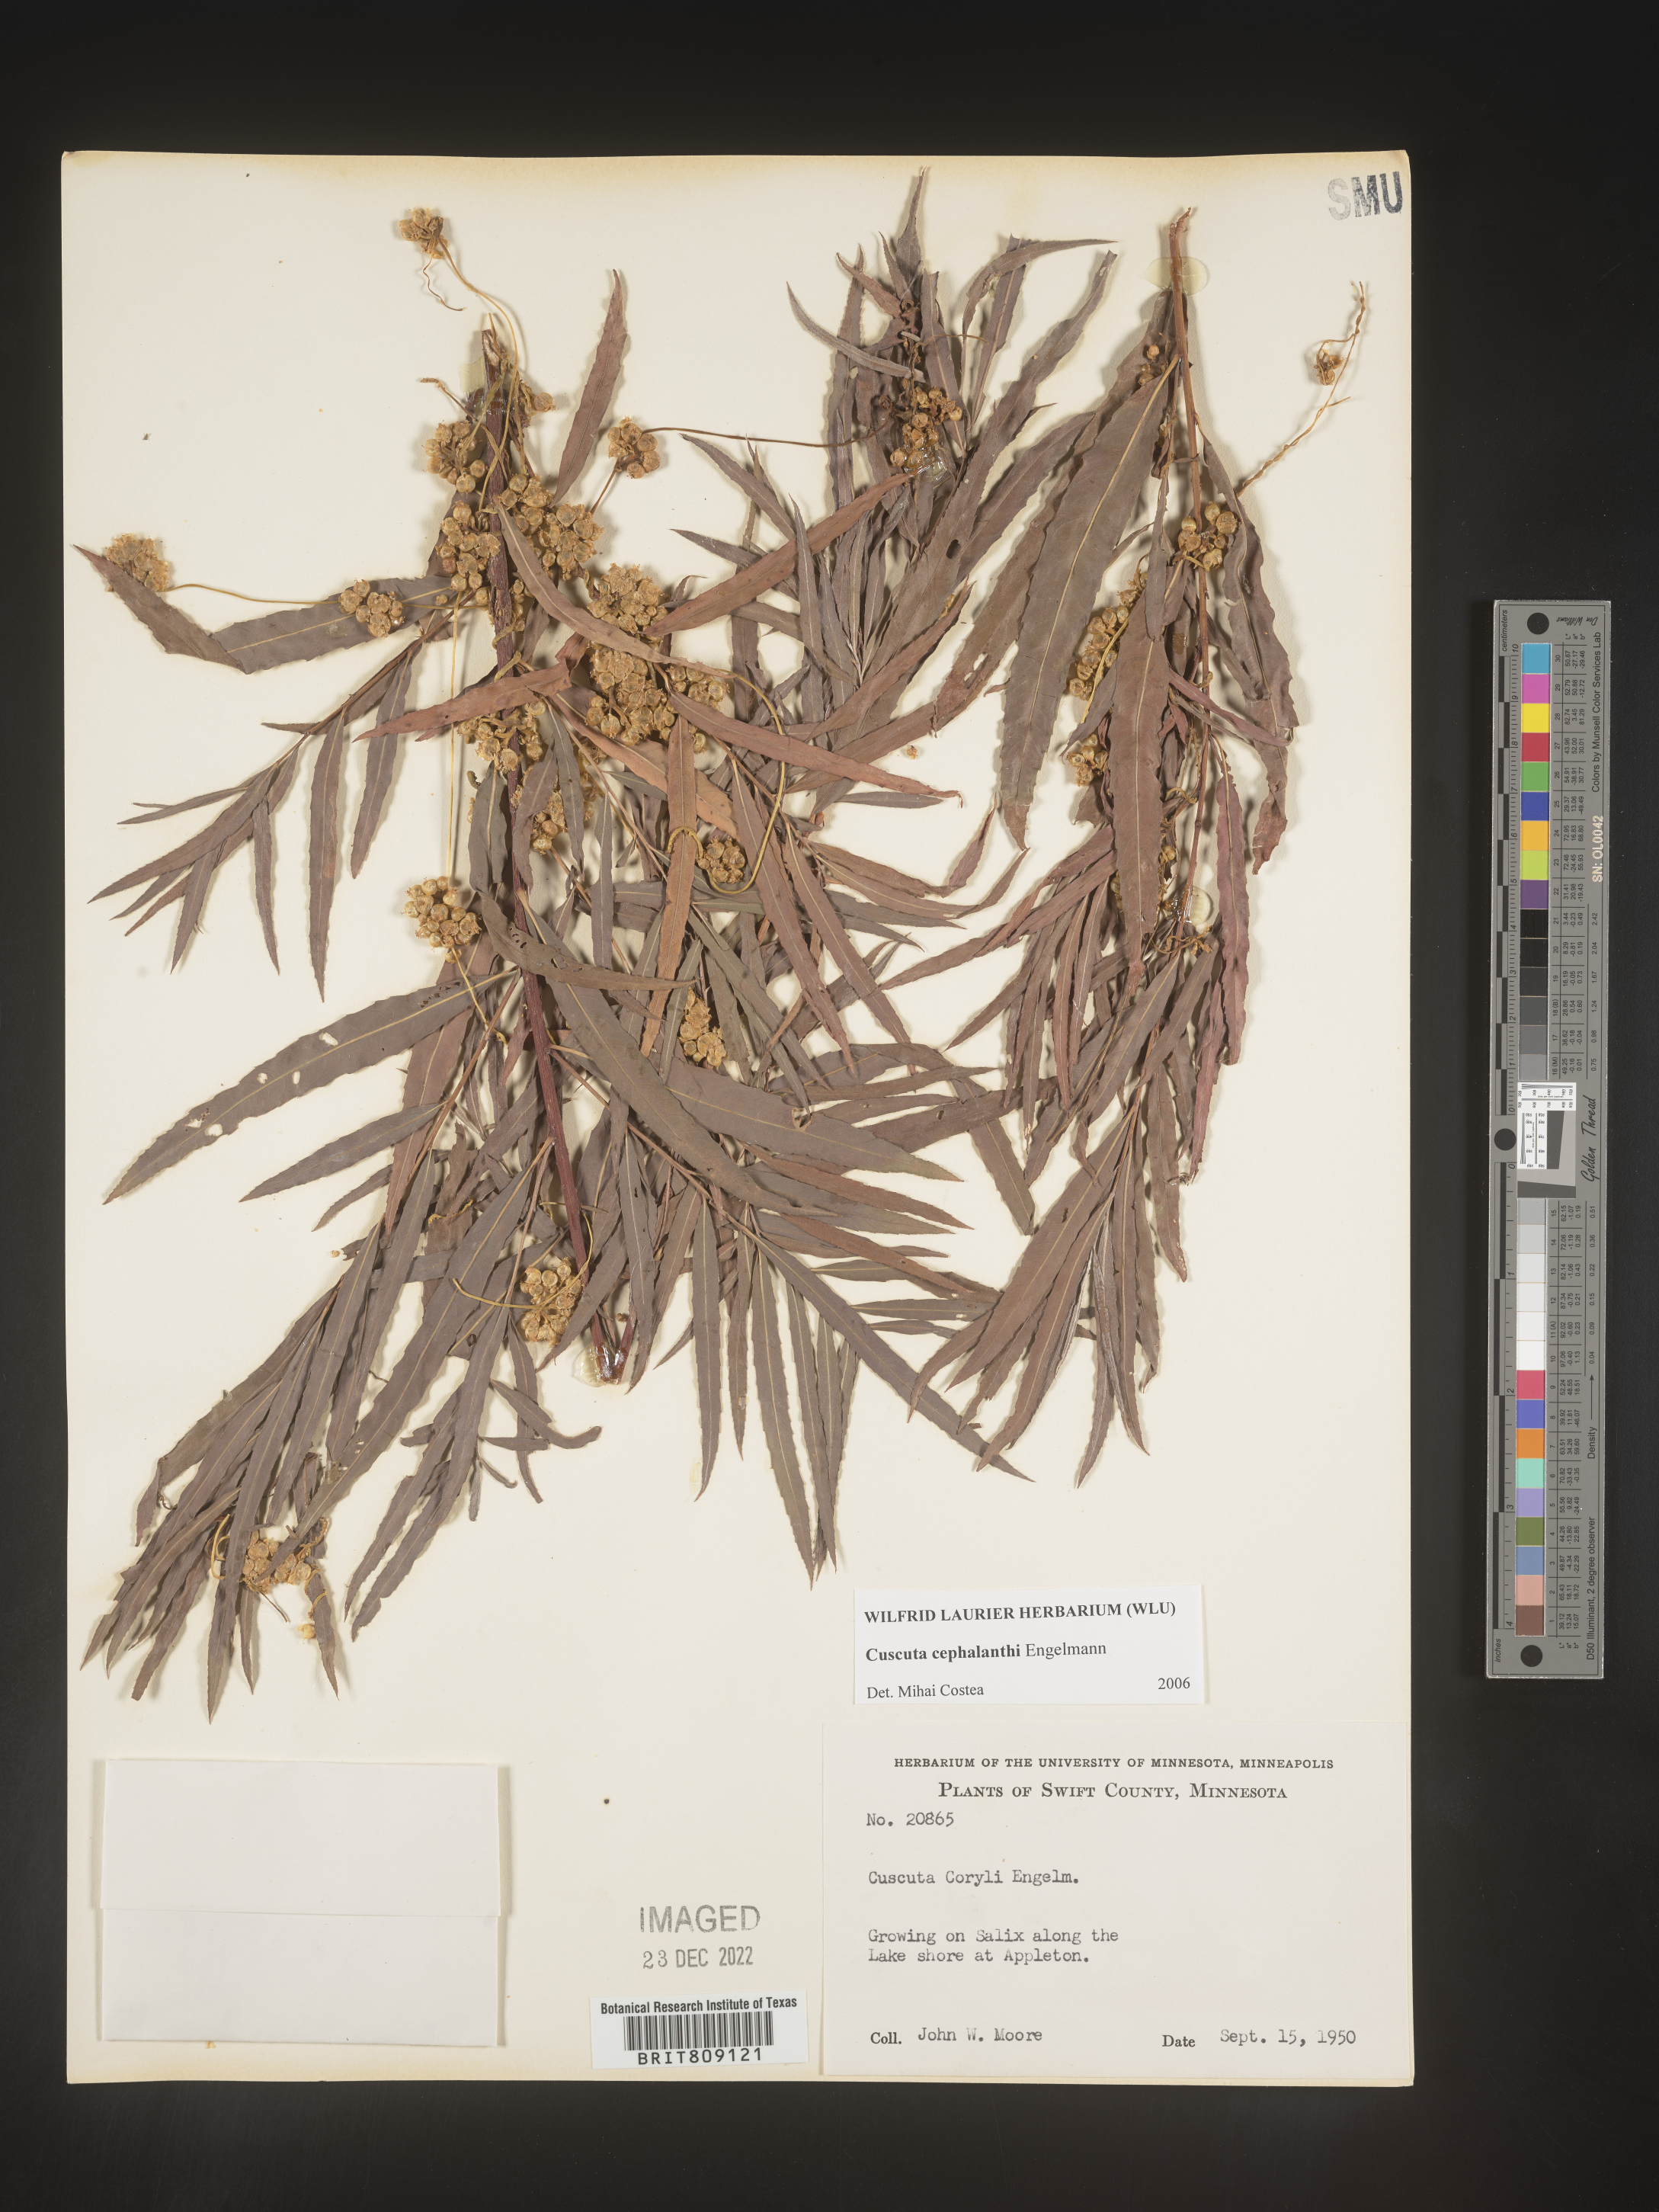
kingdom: Plantae
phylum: Tracheophyta
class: Magnoliopsida
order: Solanales
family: Convolvulaceae
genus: Cuscuta
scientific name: Cuscuta cephalanthi
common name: Button dodder
